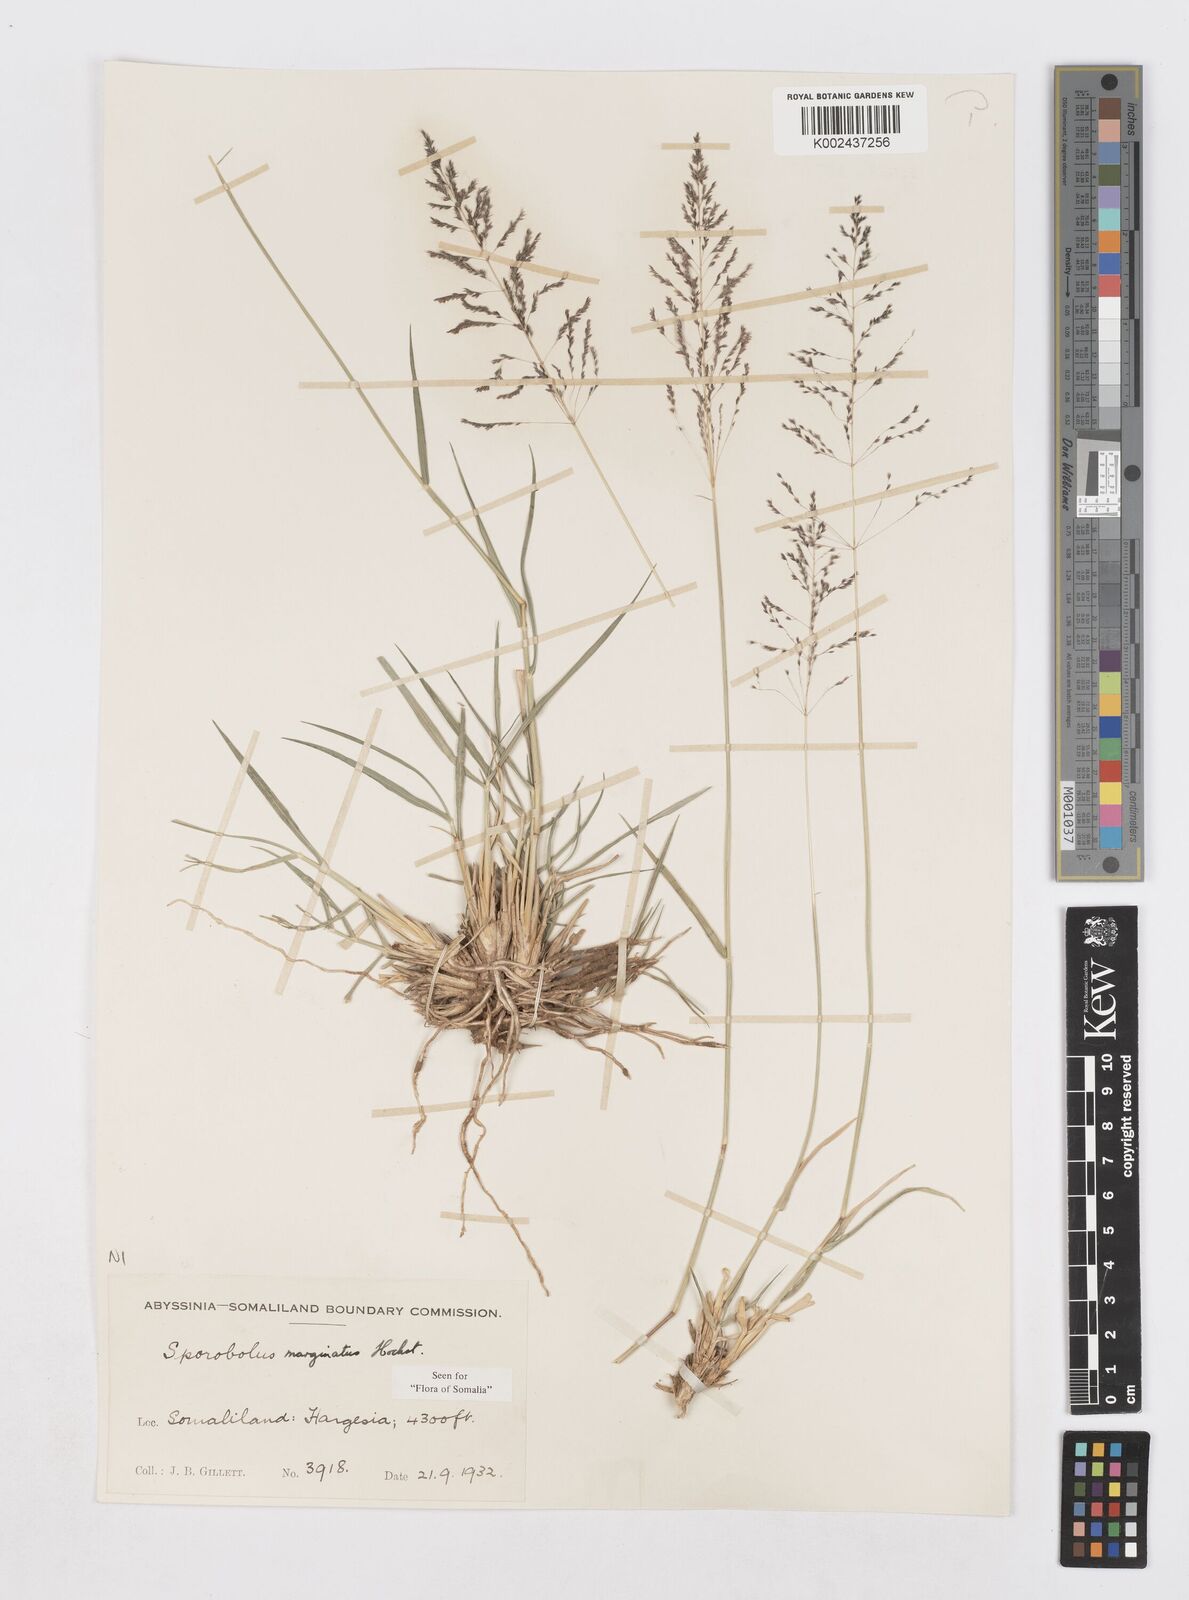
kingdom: Plantae
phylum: Tracheophyta
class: Liliopsida
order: Poales
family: Poaceae
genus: Sporobolus
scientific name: Sporobolus ioclados
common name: Pan dropseed
